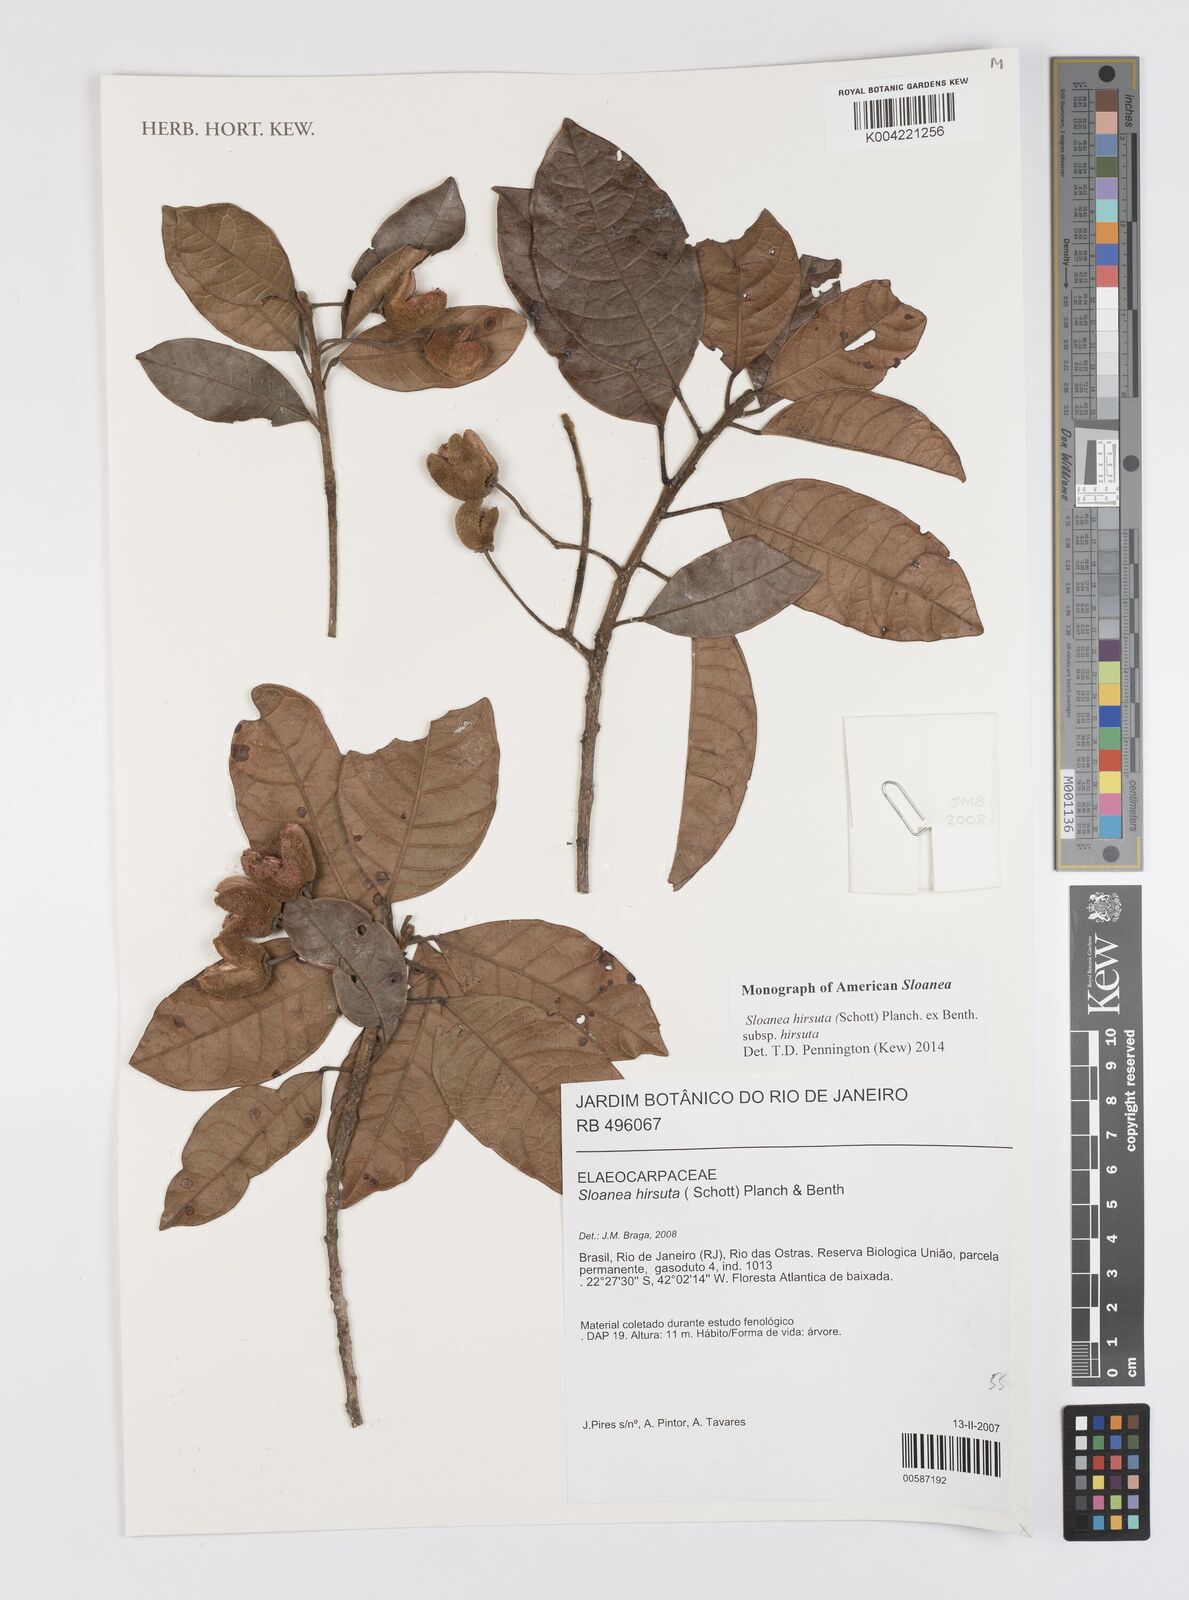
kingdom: Plantae
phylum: Tracheophyta
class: Magnoliopsida
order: Oxalidales
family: Elaeocarpaceae
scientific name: Elaeocarpaceae
